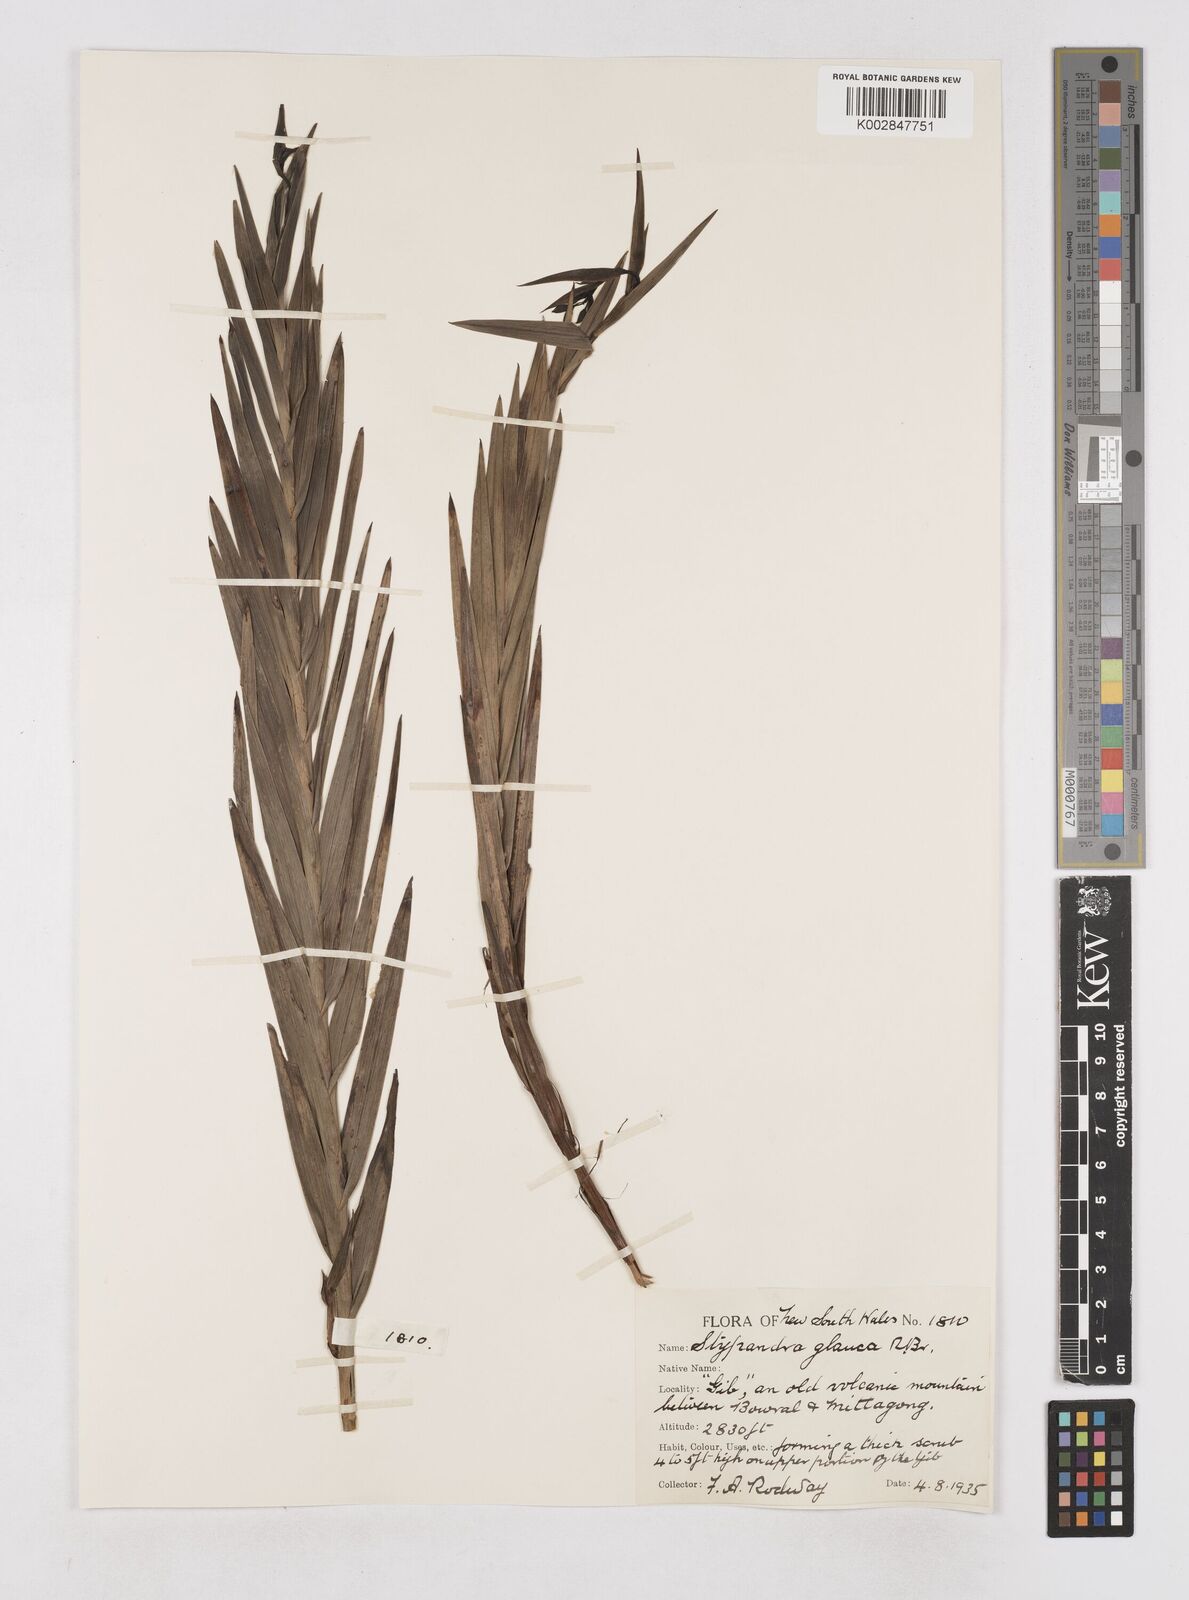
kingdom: Plantae
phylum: Tracheophyta
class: Liliopsida
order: Asparagales
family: Asphodelaceae
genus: Stypandra
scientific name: Stypandra glauca
